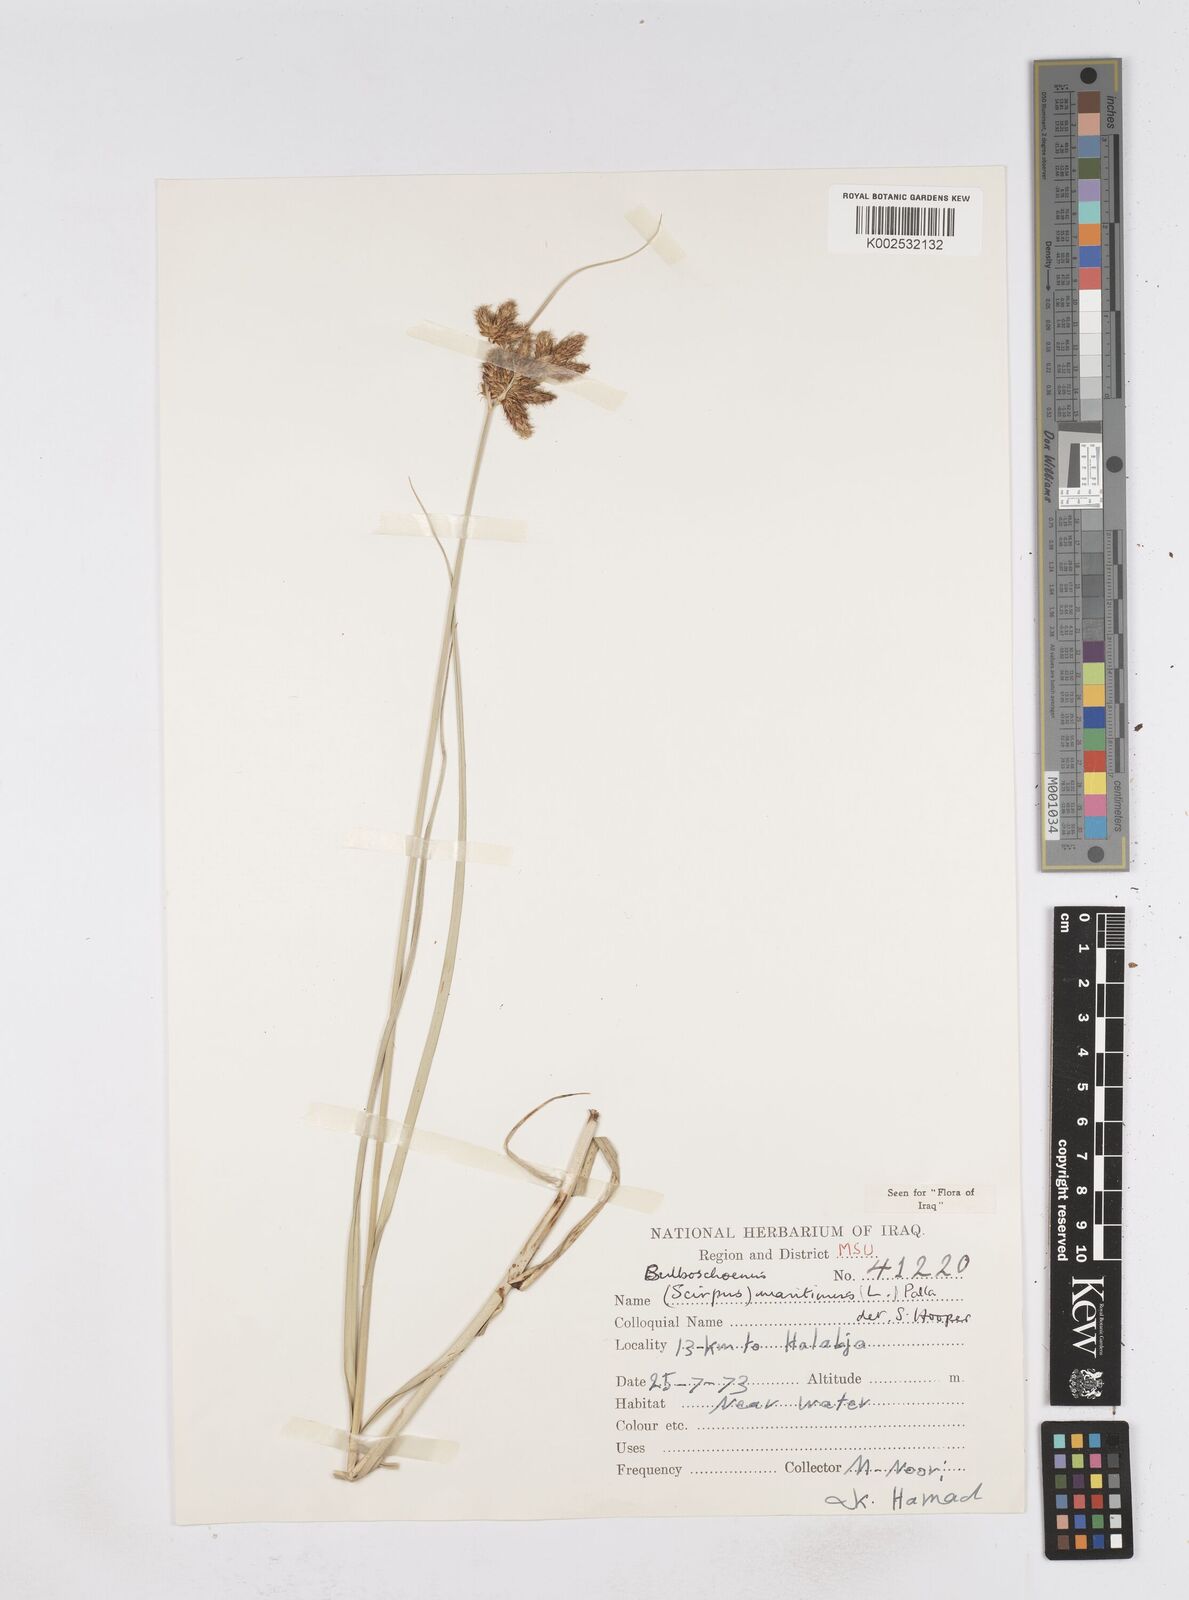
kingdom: Plantae
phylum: Tracheophyta
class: Liliopsida
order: Poales
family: Cyperaceae
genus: Bolboschoenus
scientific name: Bolboschoenus maritimus
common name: Sea club-rush
